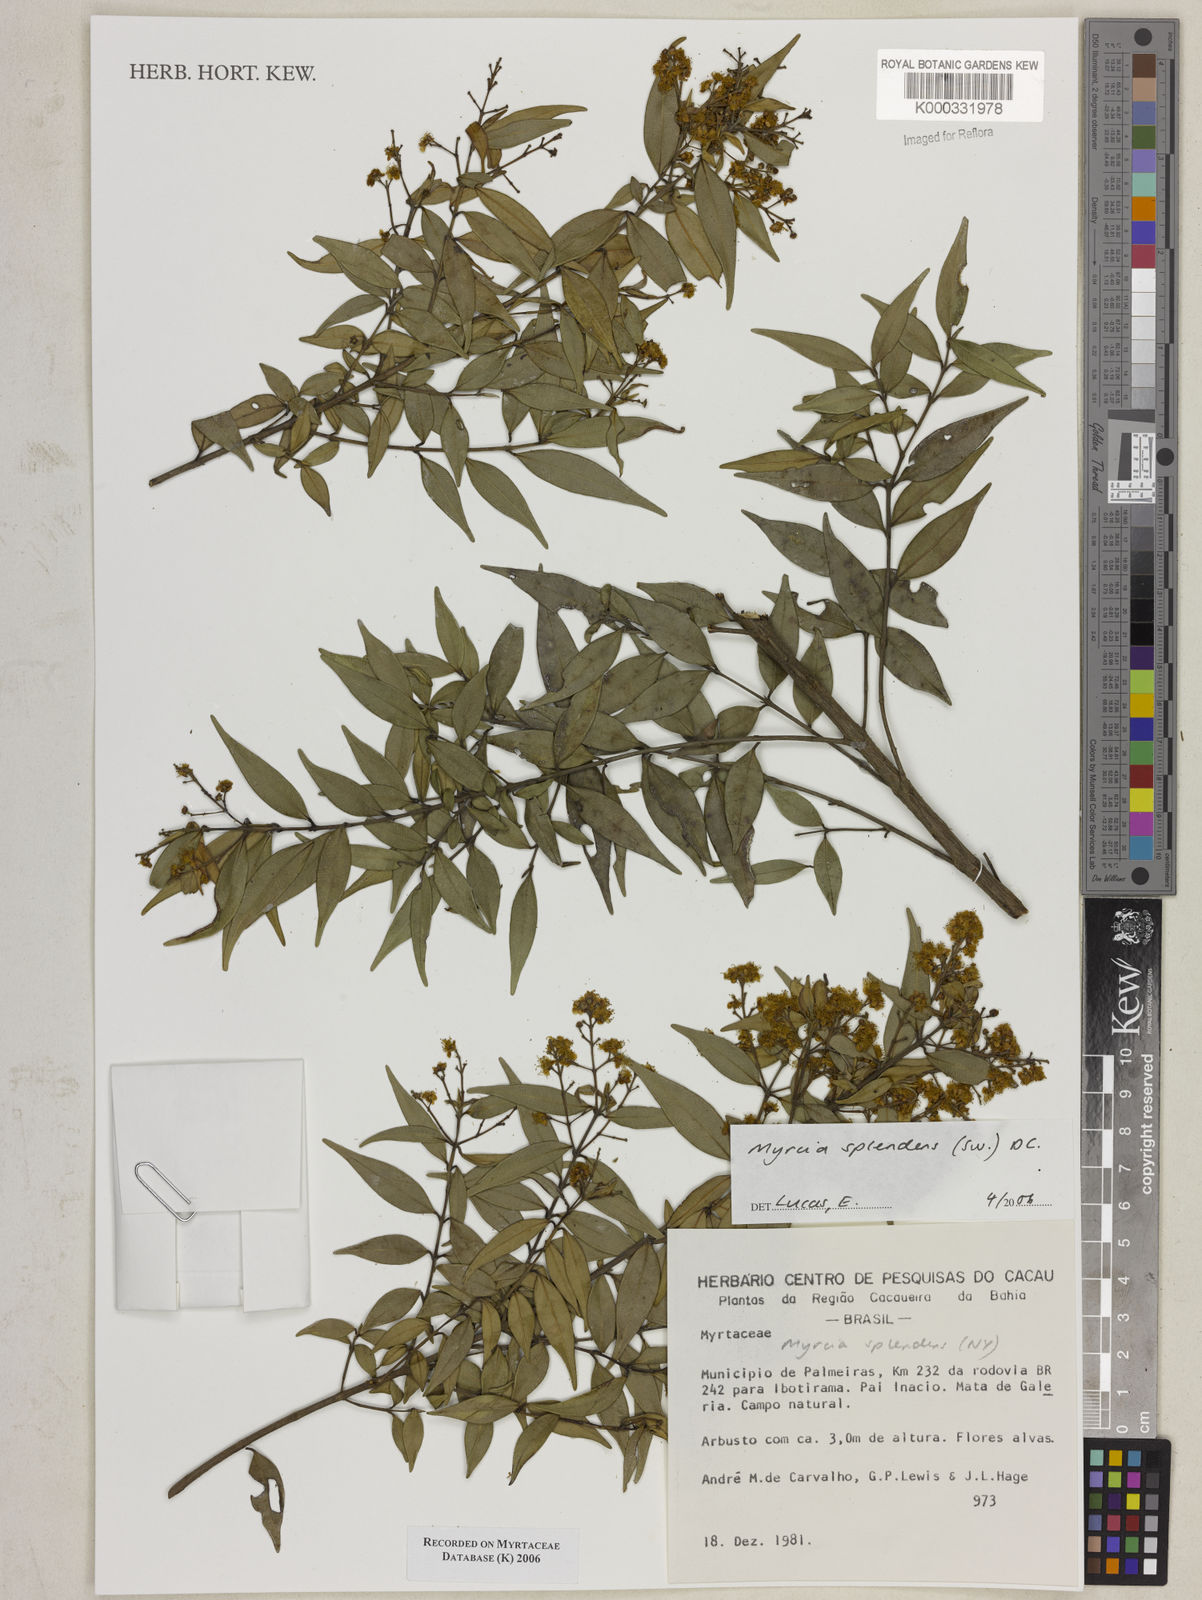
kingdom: Plantae
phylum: Tracheophyta
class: Magnoliopsida
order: Myrtales
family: Myrtaceae
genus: Myrcia
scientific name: Myrcia splendens
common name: Surinam cherry
